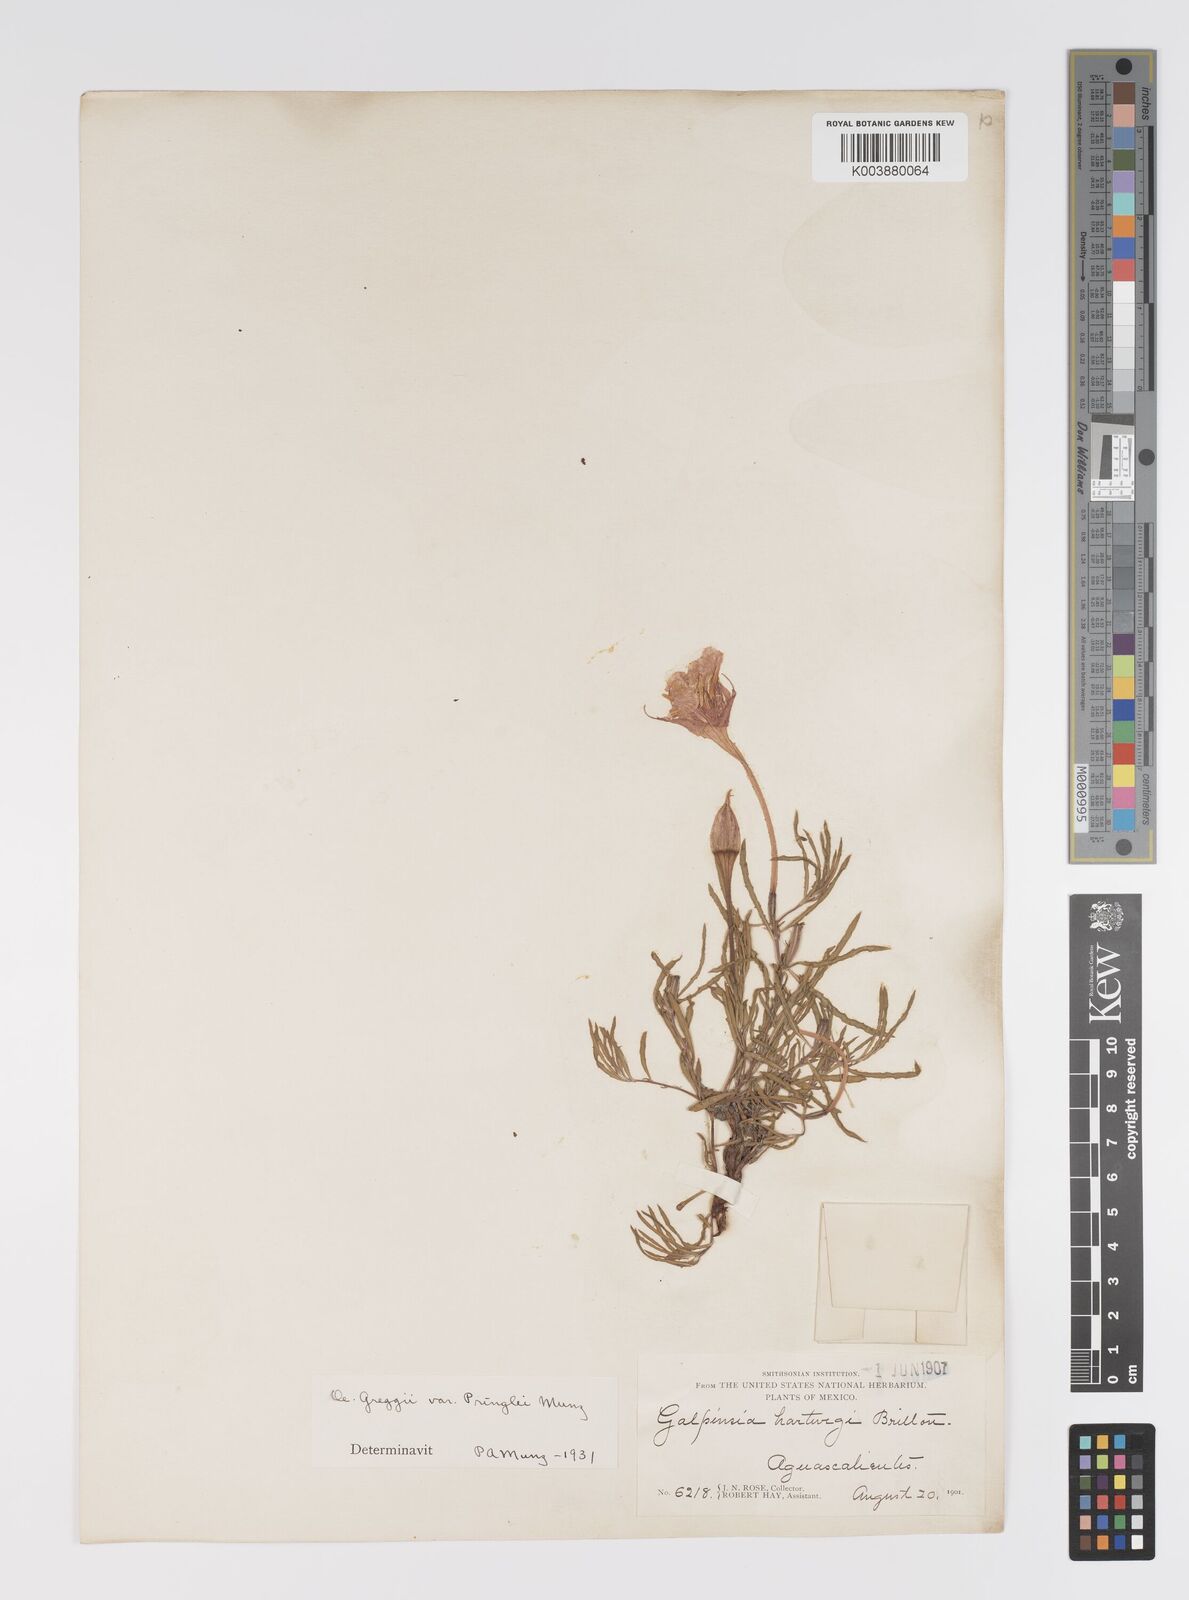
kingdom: Plantae
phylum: Tracheophyta
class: Magnoliopsida
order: Myrtales
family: Onagraceae
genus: Oenothera
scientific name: Oenothera hartwegii
